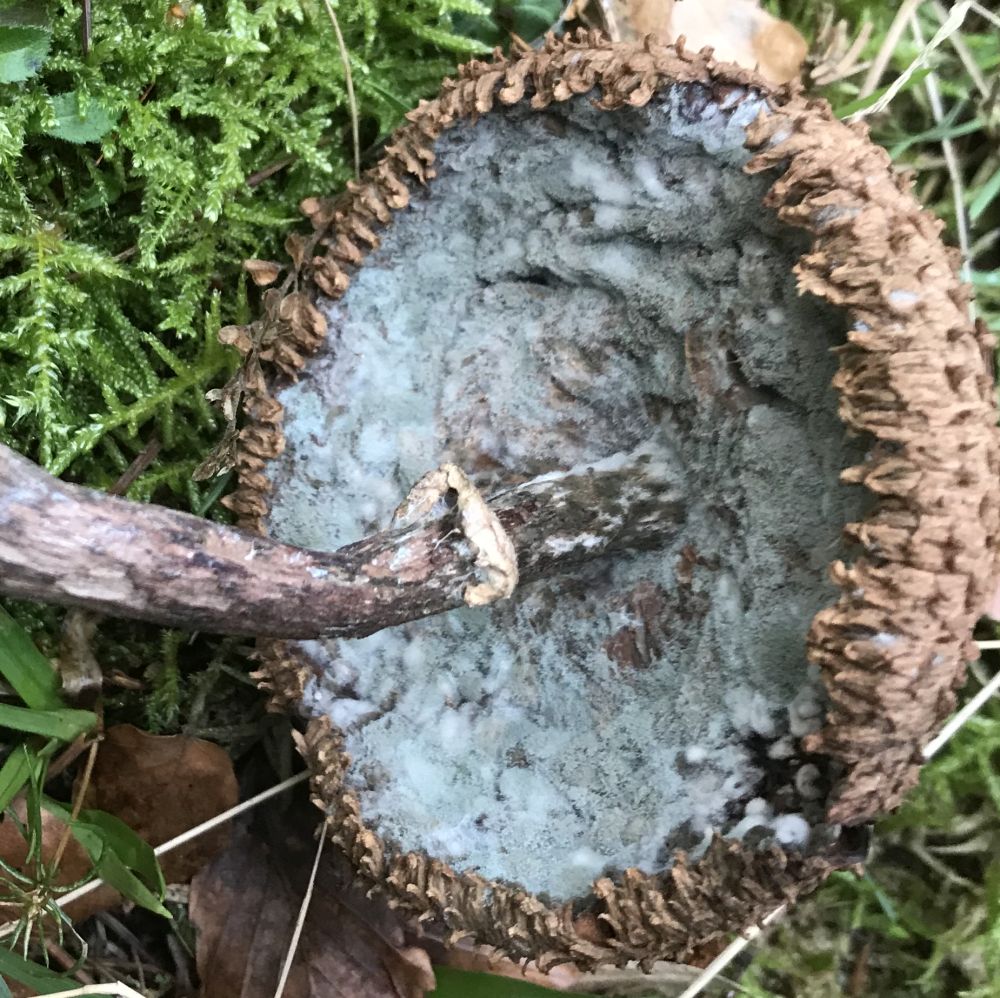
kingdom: Fungi
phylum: Ascomycota
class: Eurotiomycetes
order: Eurotiales
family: Aspergillaceae
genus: Penicillium
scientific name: Penicillium
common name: penselskimmel
